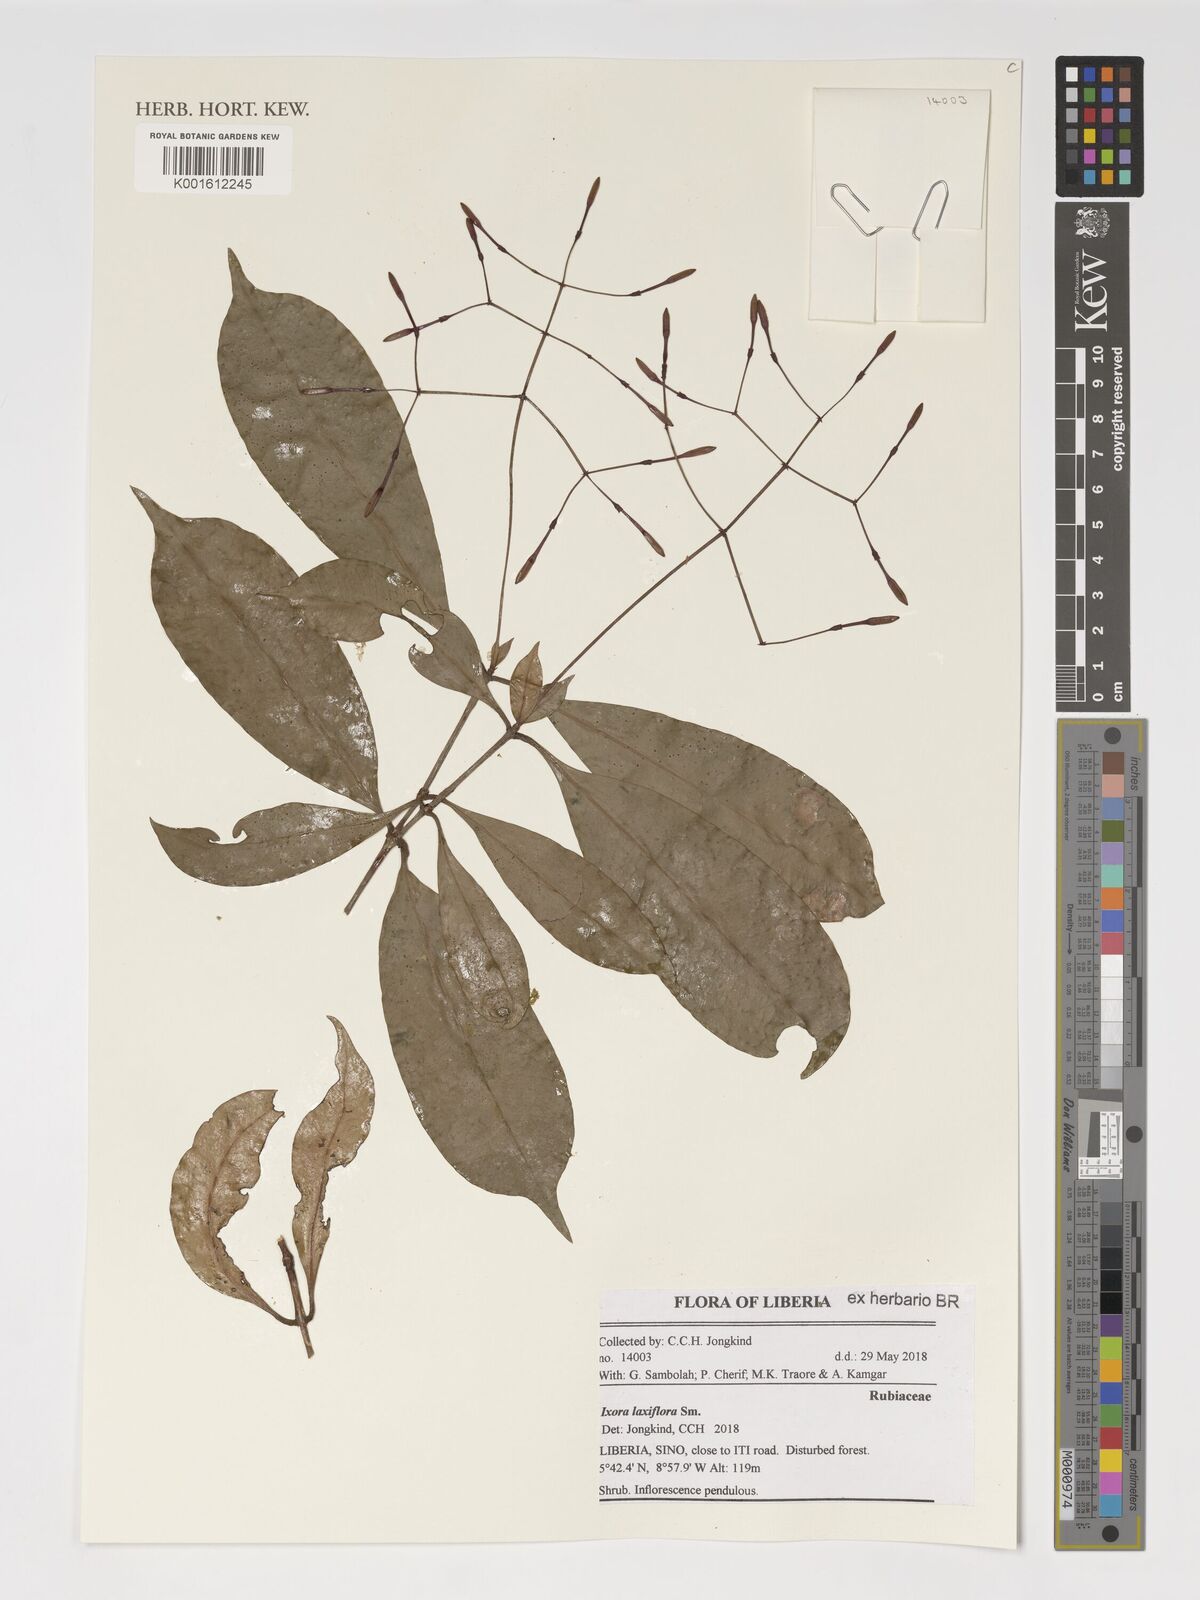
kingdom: Plantae
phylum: Tracheophyta
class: Magnoliopsida
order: Gentianales
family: Rubiaceae
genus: Ixora
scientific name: Ixora laxiflora
